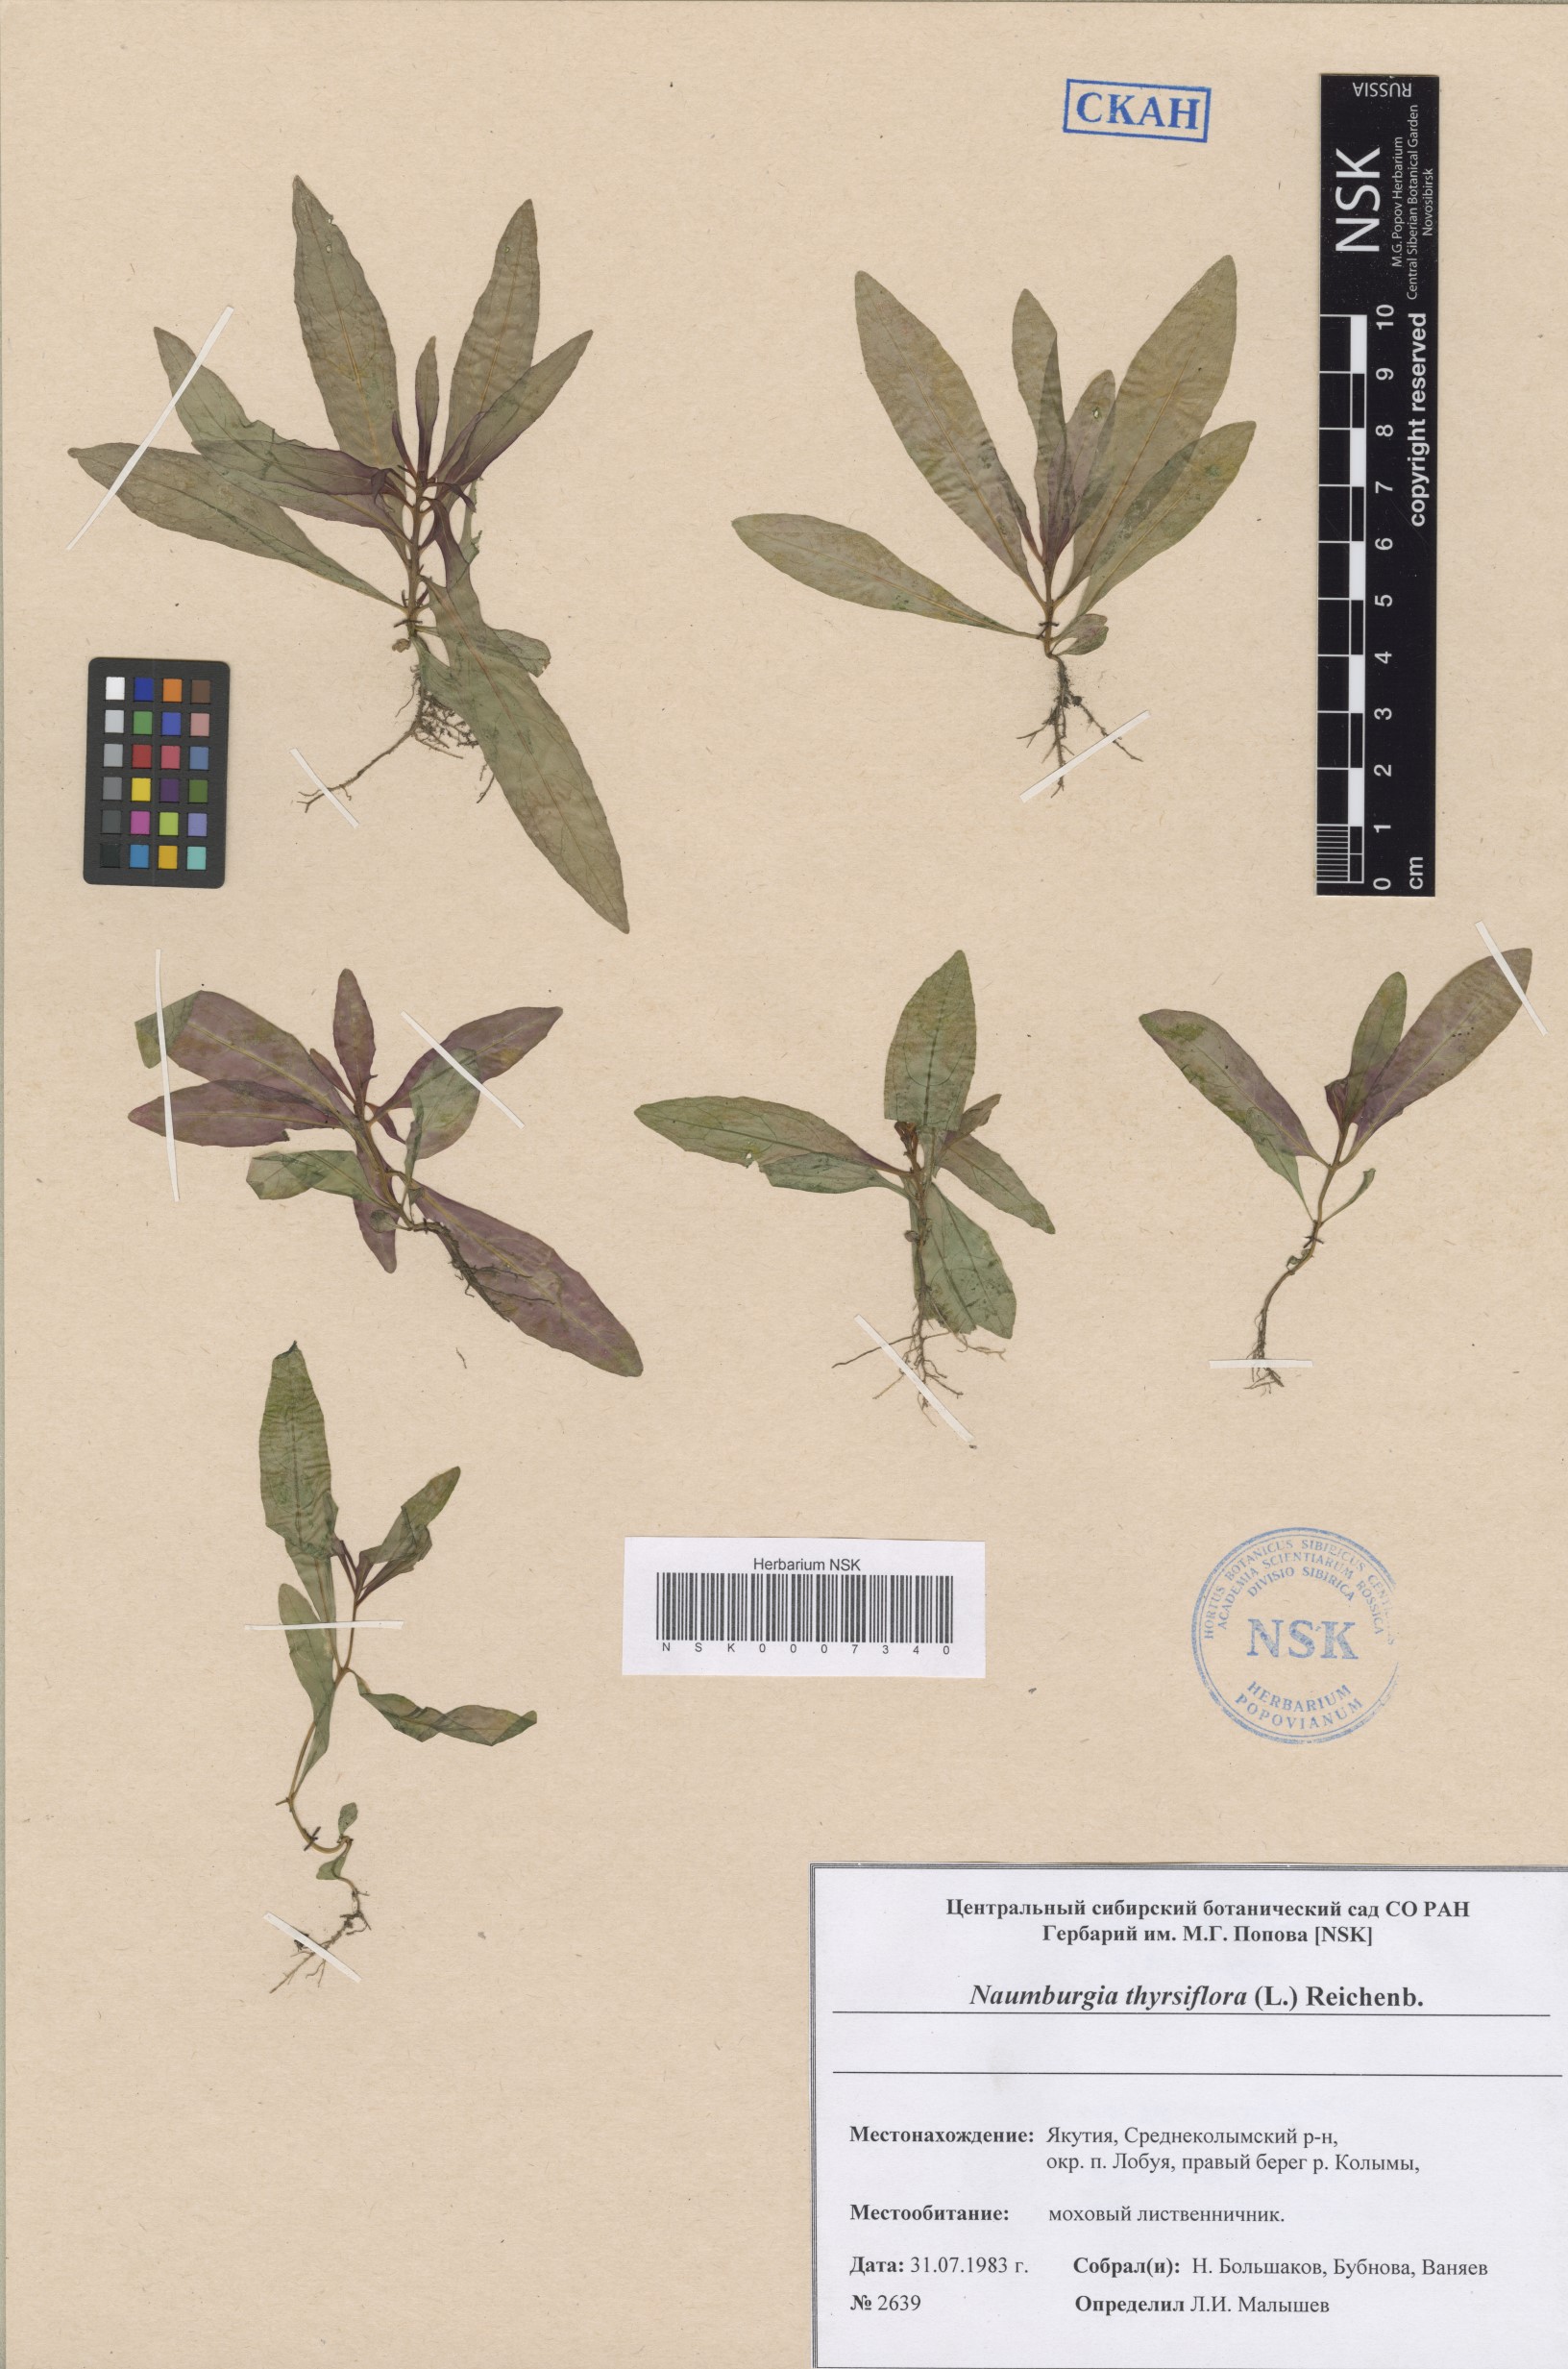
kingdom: Plantae
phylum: Tracheophyta
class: Magnoliopsida
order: Ericales
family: Primulaceae
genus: Lysimachia
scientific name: Lysimachia thyrsiflora
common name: Tufted loosestrife
